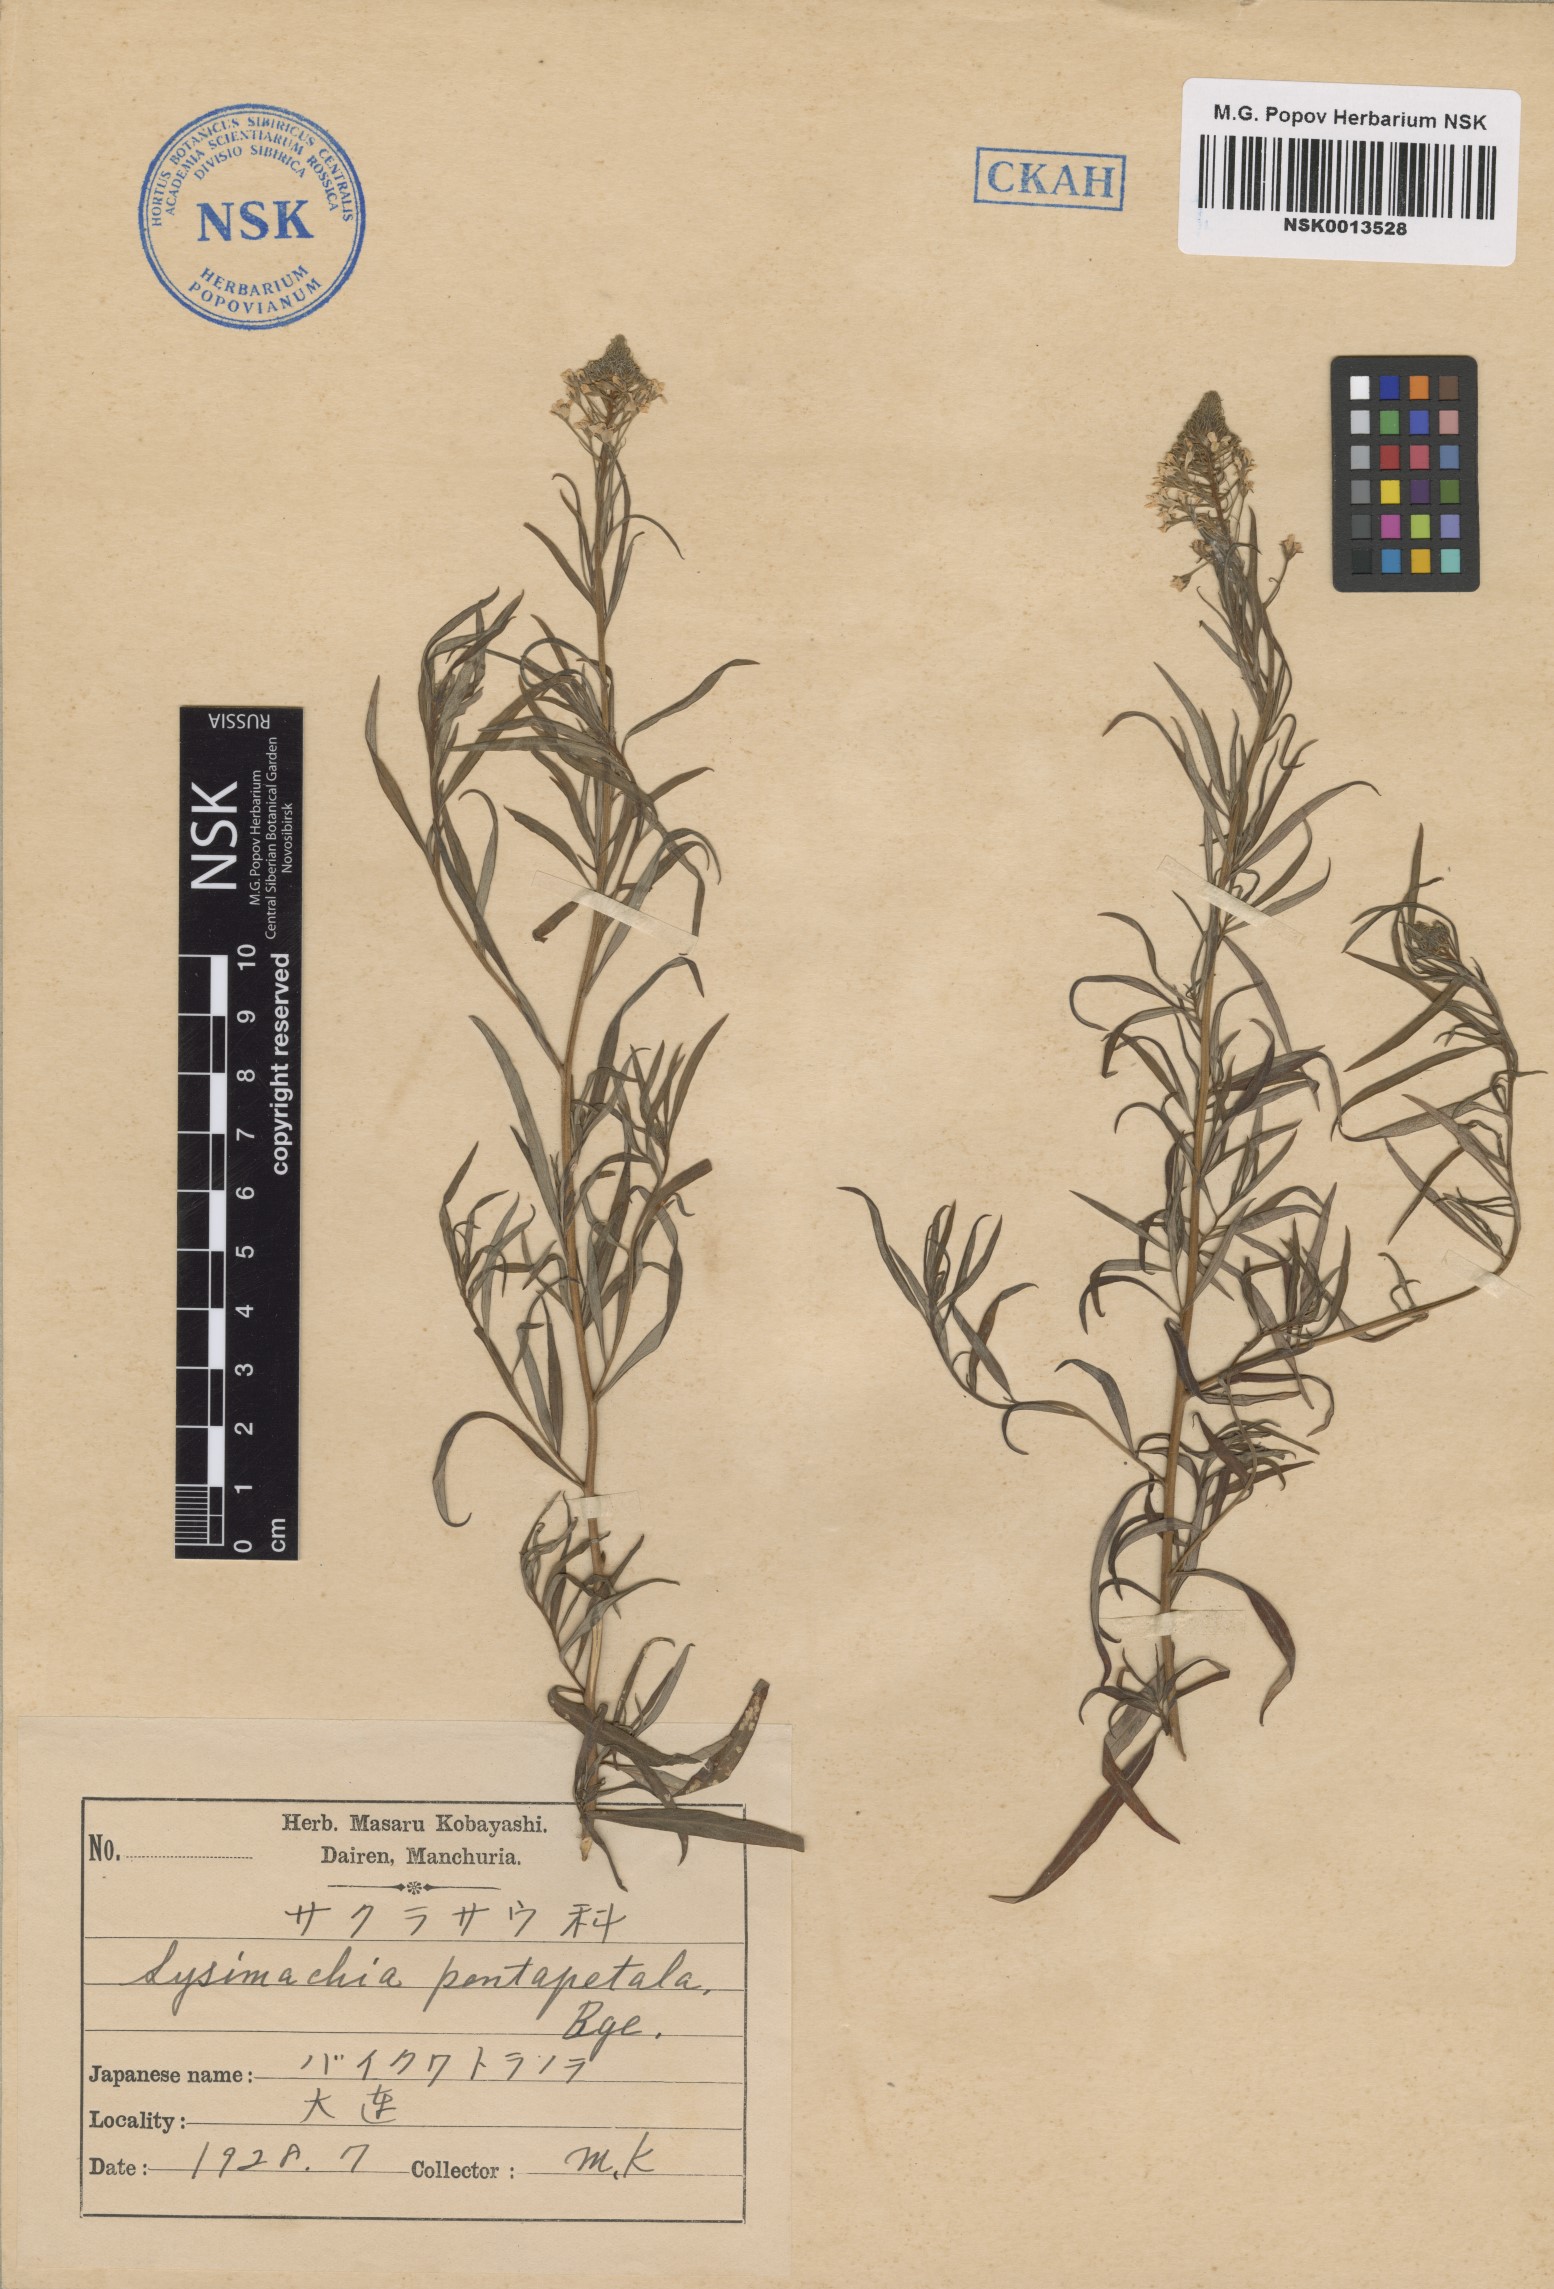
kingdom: Plantae
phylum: Tracheophyta
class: Magnoliopsida
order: Ericales
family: Primulaceae
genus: Lysimachia
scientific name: Lysimachia pentapetala
